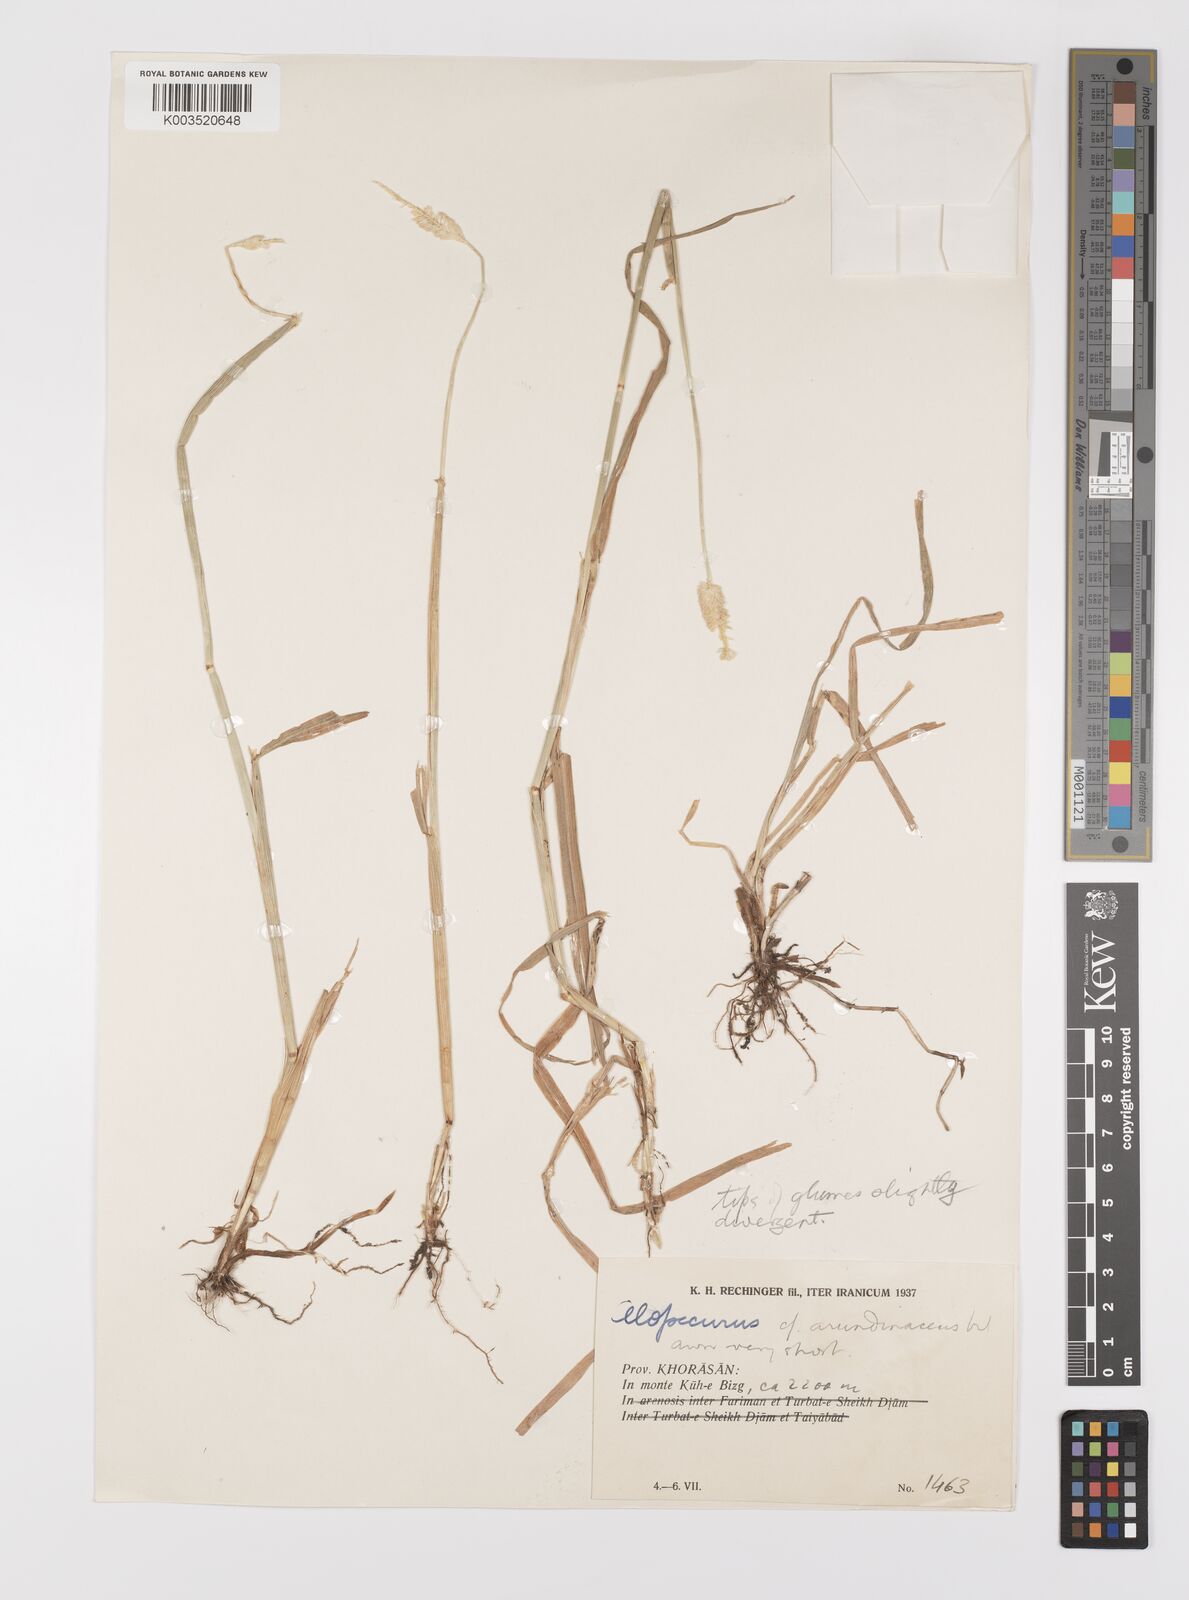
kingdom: Plantae
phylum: Tracheophyta
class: Liliopsida
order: Poales
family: Poaceae
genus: Alopecurus
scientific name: Alopecurus
